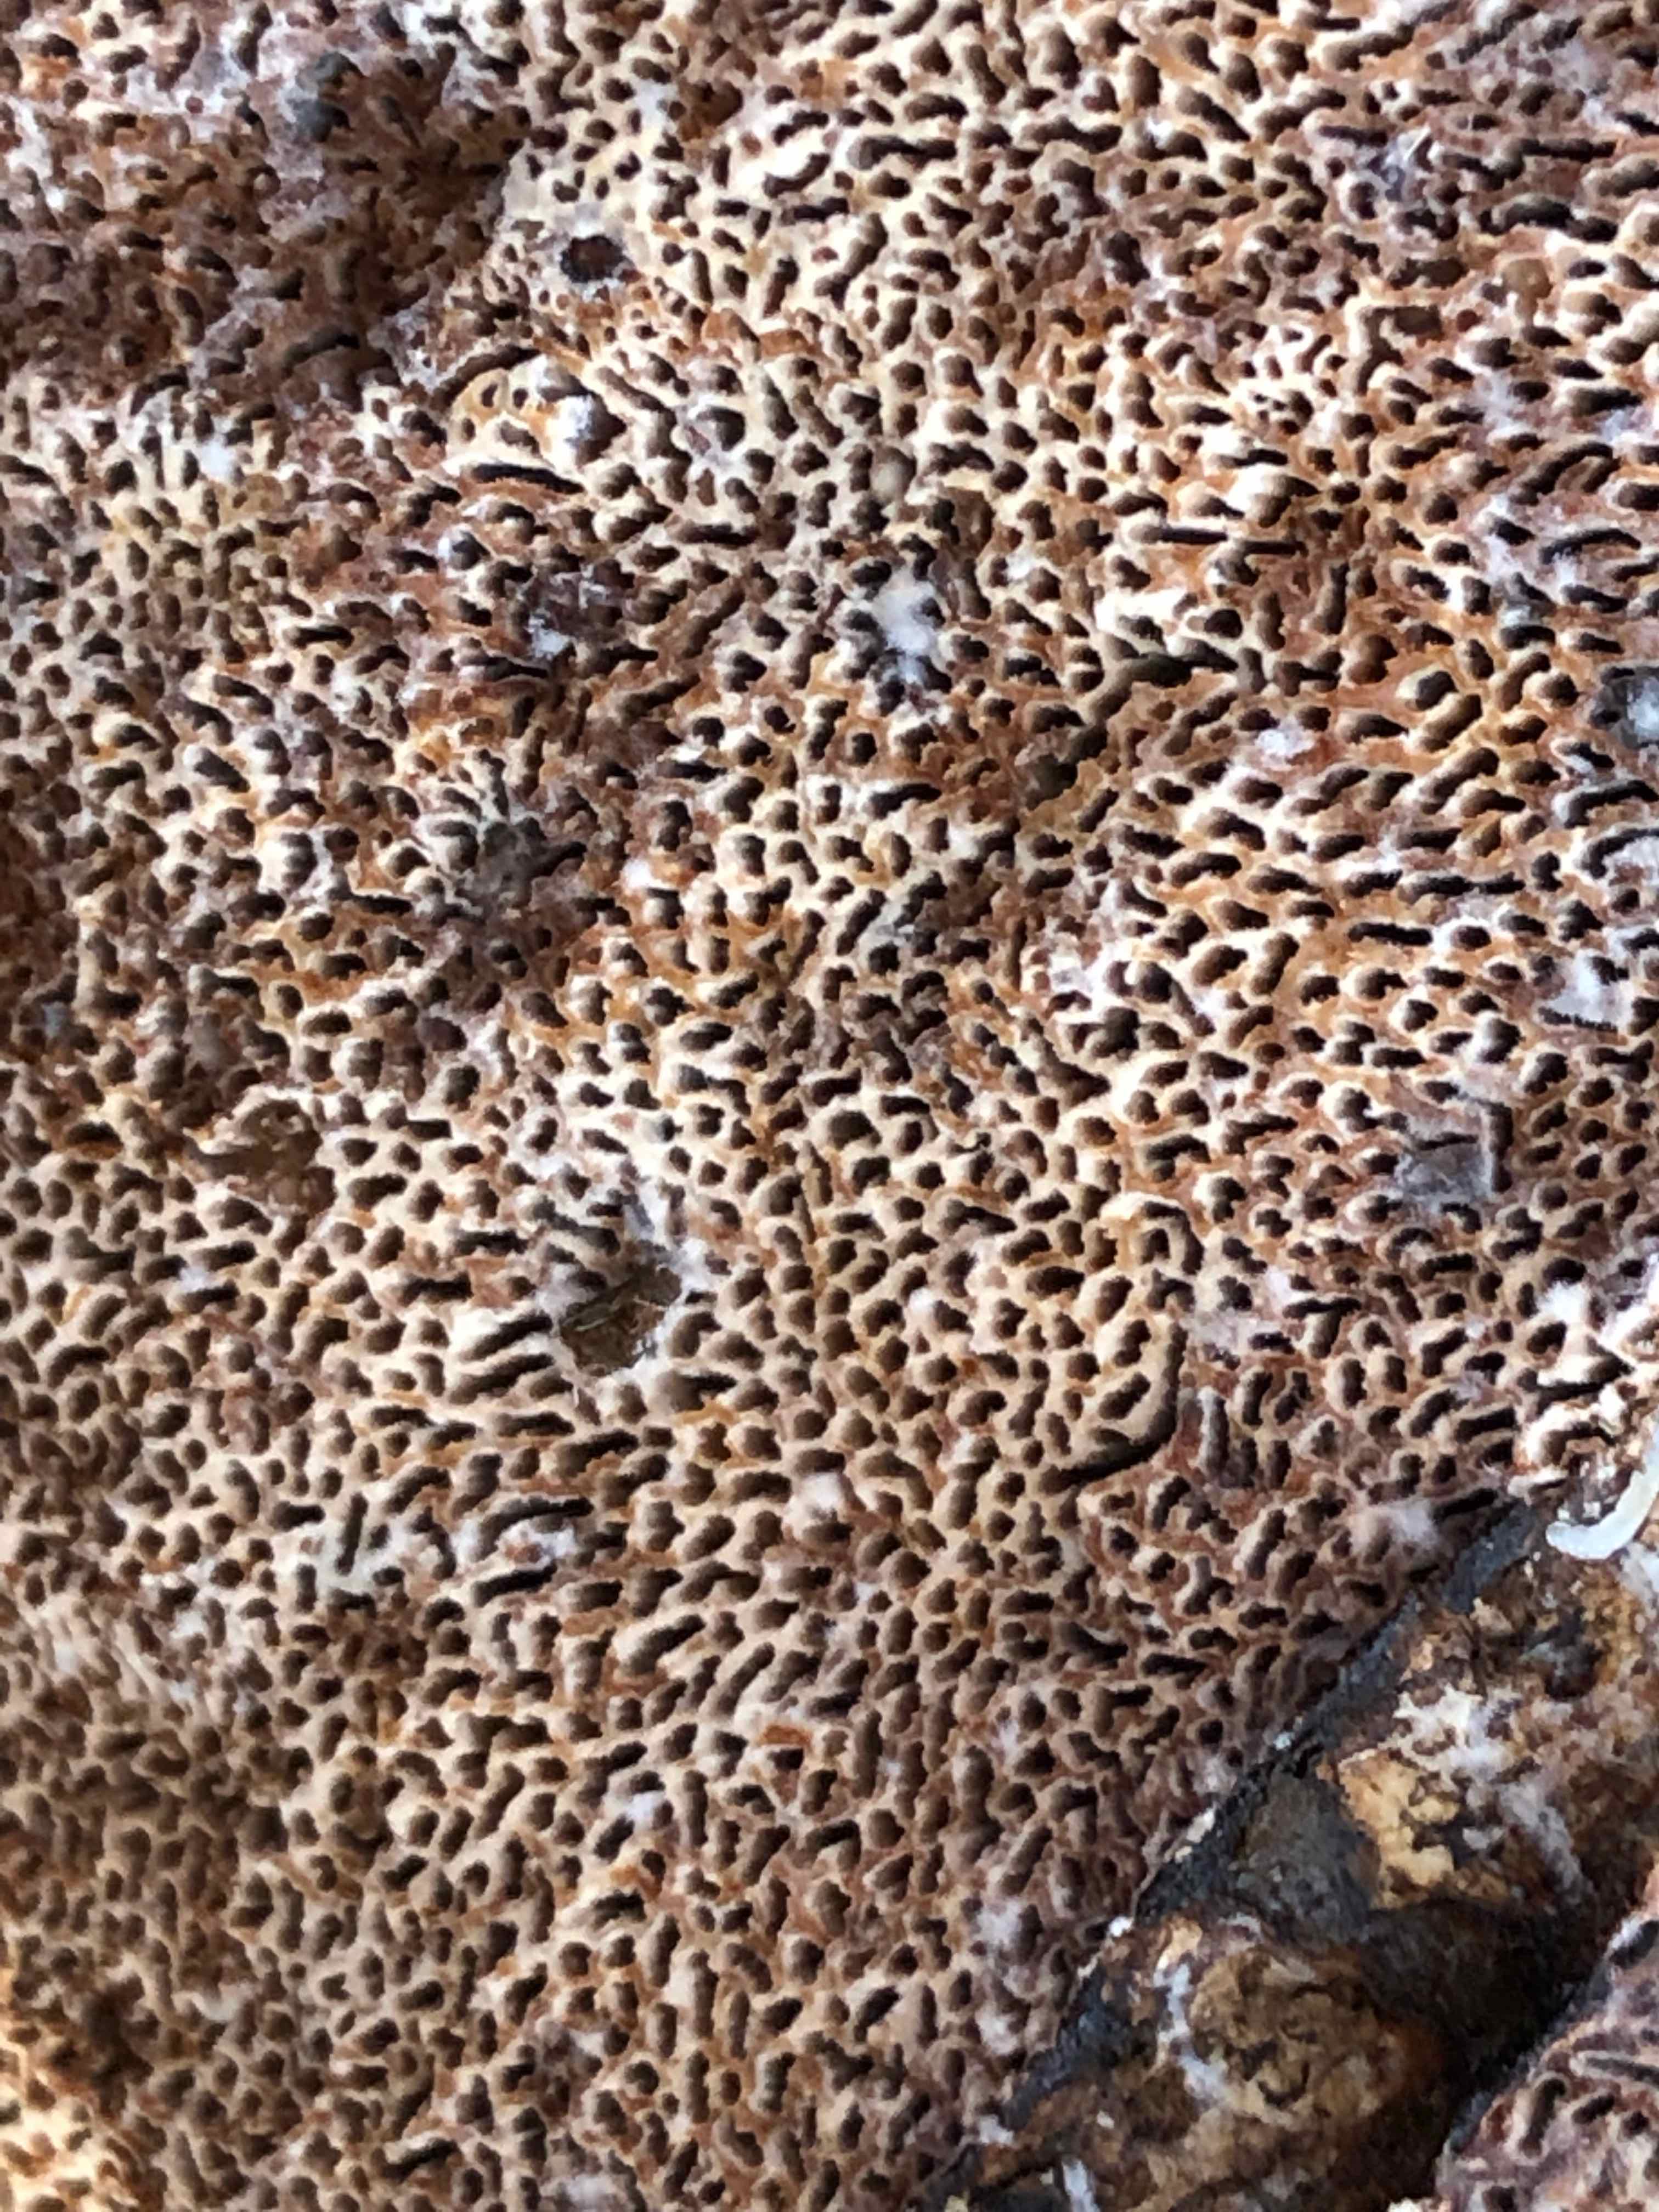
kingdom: Fungi
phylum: Basidiomycota
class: Agaricomycetes
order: Polyporales
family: Polyporaceae
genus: Podofomes
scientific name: Podofomes mollis
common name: blød begporesvamp
